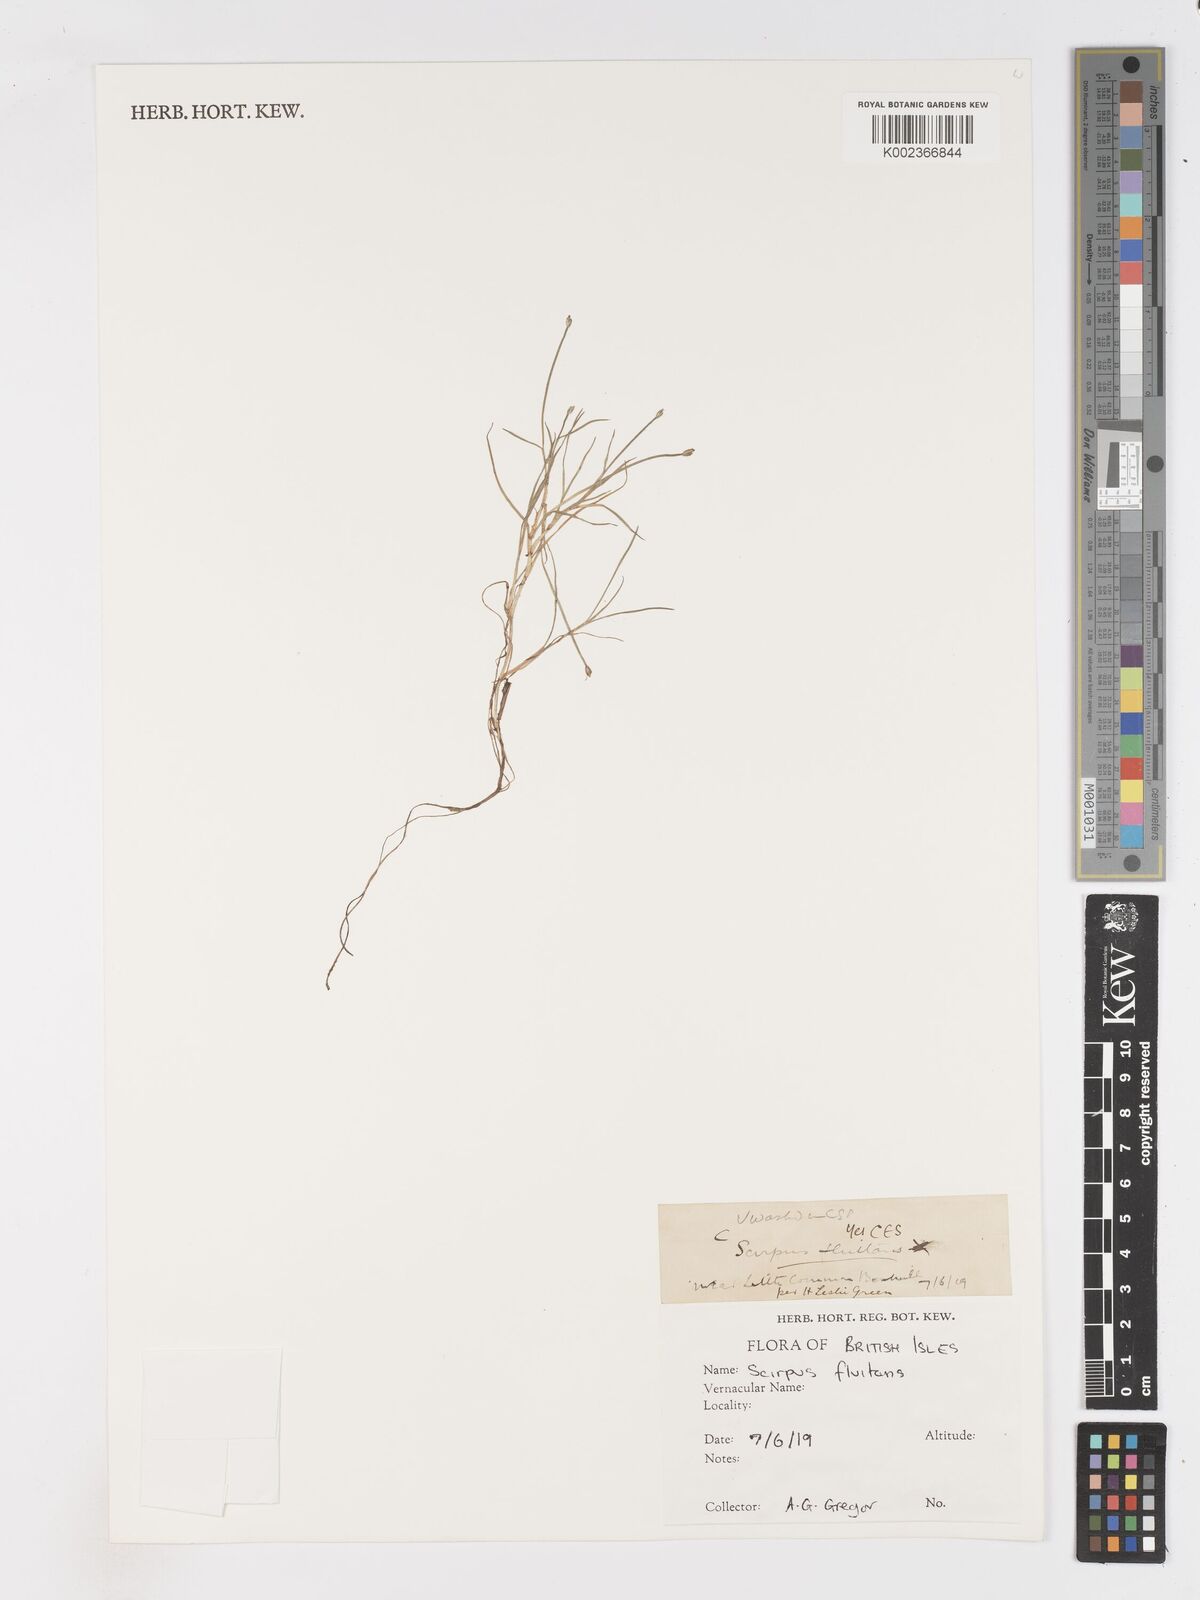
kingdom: Plantae
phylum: Tracheophyta
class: Liliopsida
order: Poales
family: Cyperaceae
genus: Isolepis
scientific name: Isolepis fluitans
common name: Floating club-rush
